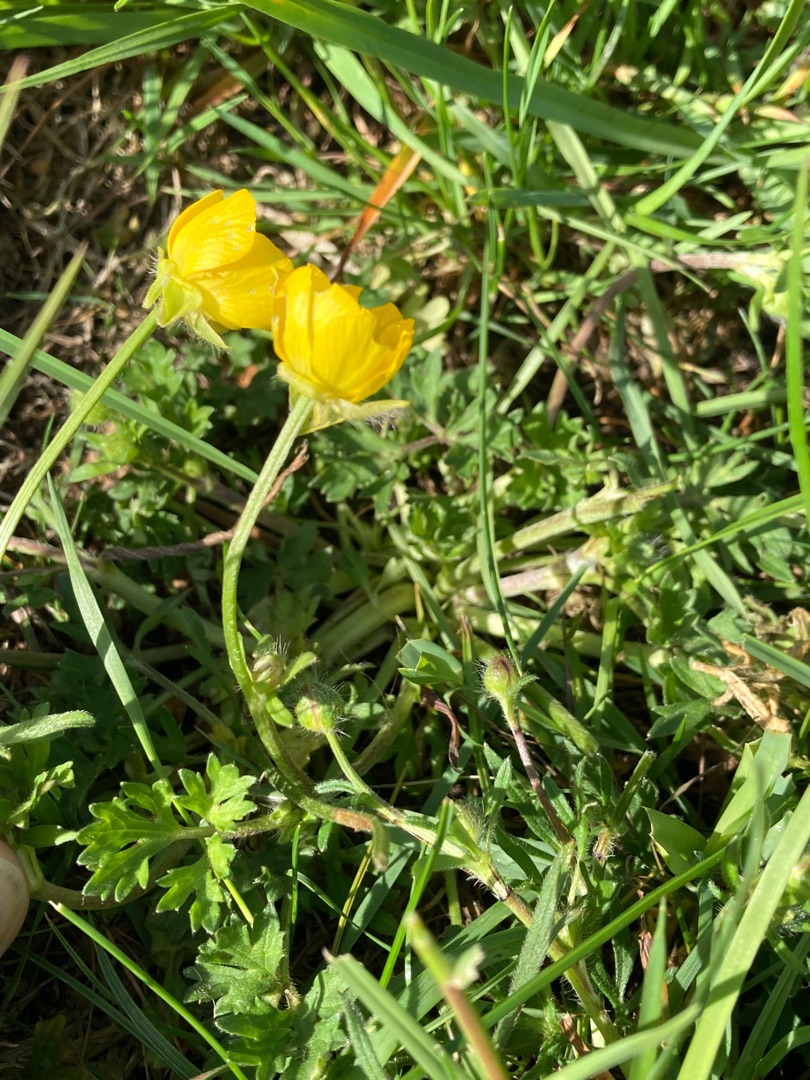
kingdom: Plantae
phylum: Tracheophyta
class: Magnoliopsida
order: Ranunculales
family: Ranunculaceae
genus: Ranunculus
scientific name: Ranunculus bulbosus
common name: Knold-ranunkel
